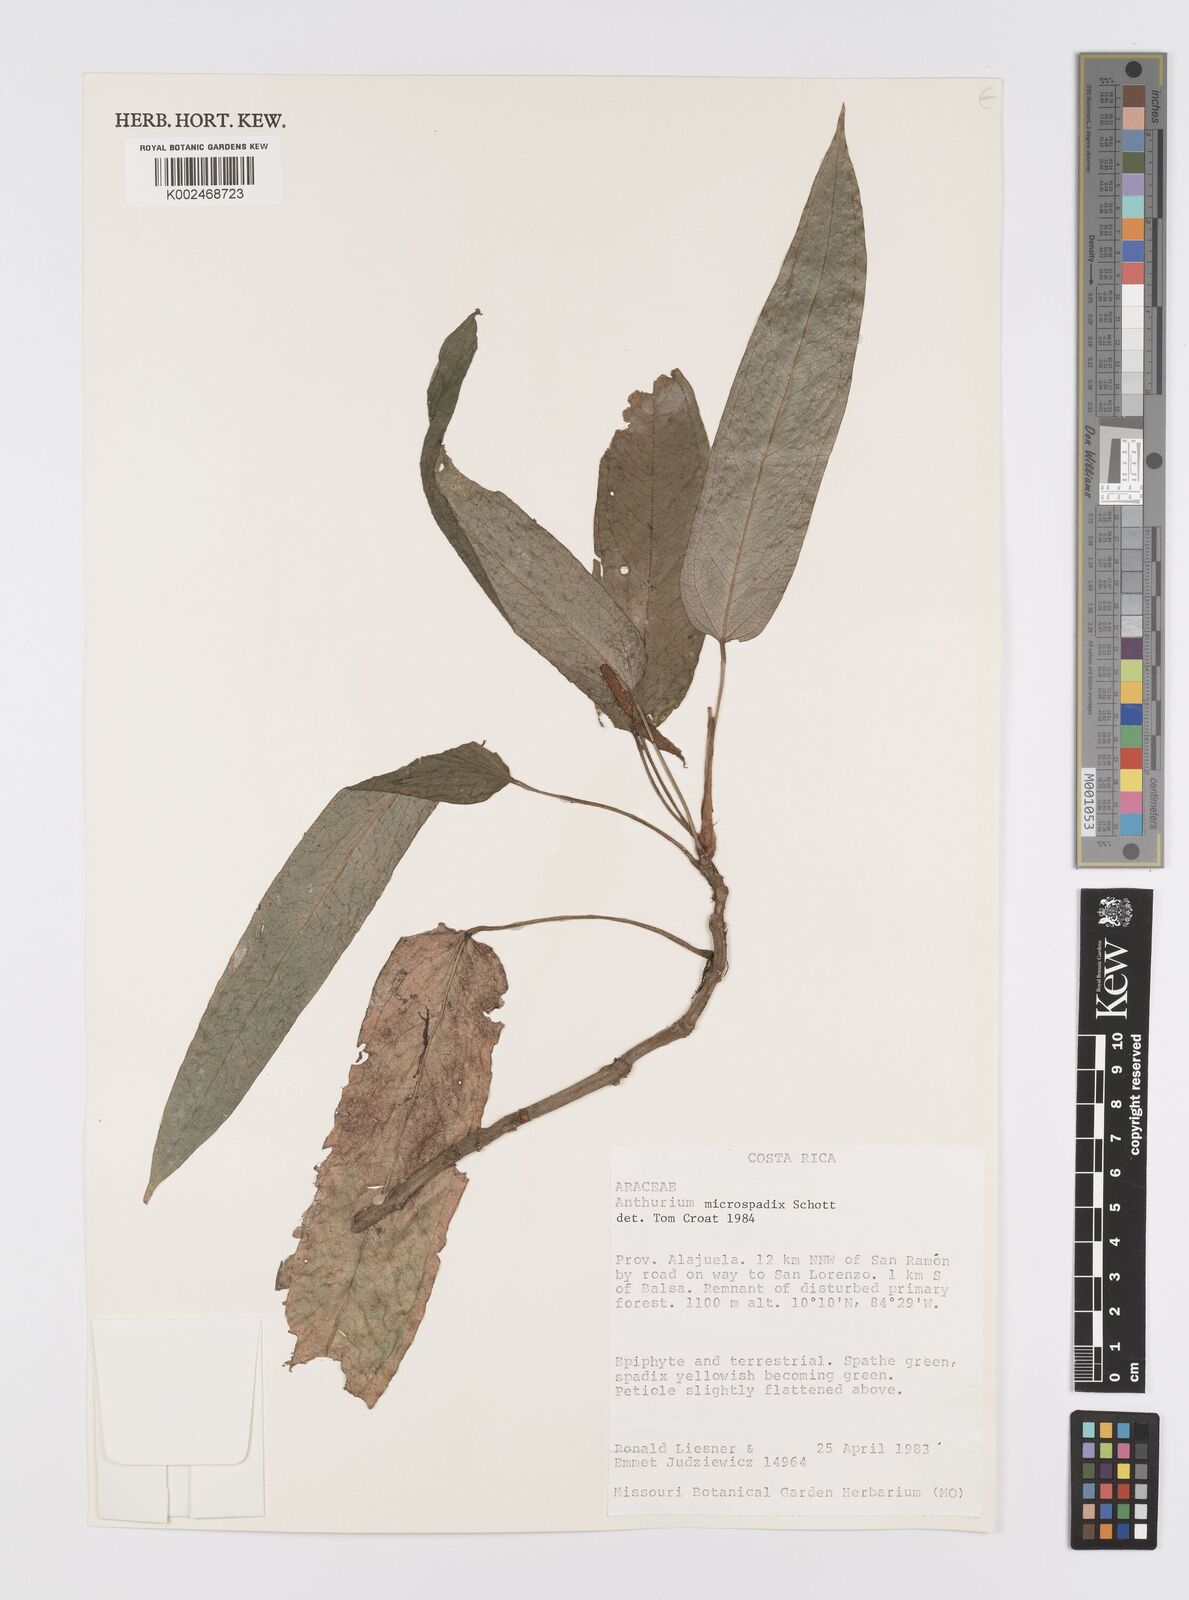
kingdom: Plantae
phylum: Tracheophyta
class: Liliopsida
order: Alismatales
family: Araceae
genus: Anthurium
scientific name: Anthurium microspadix
